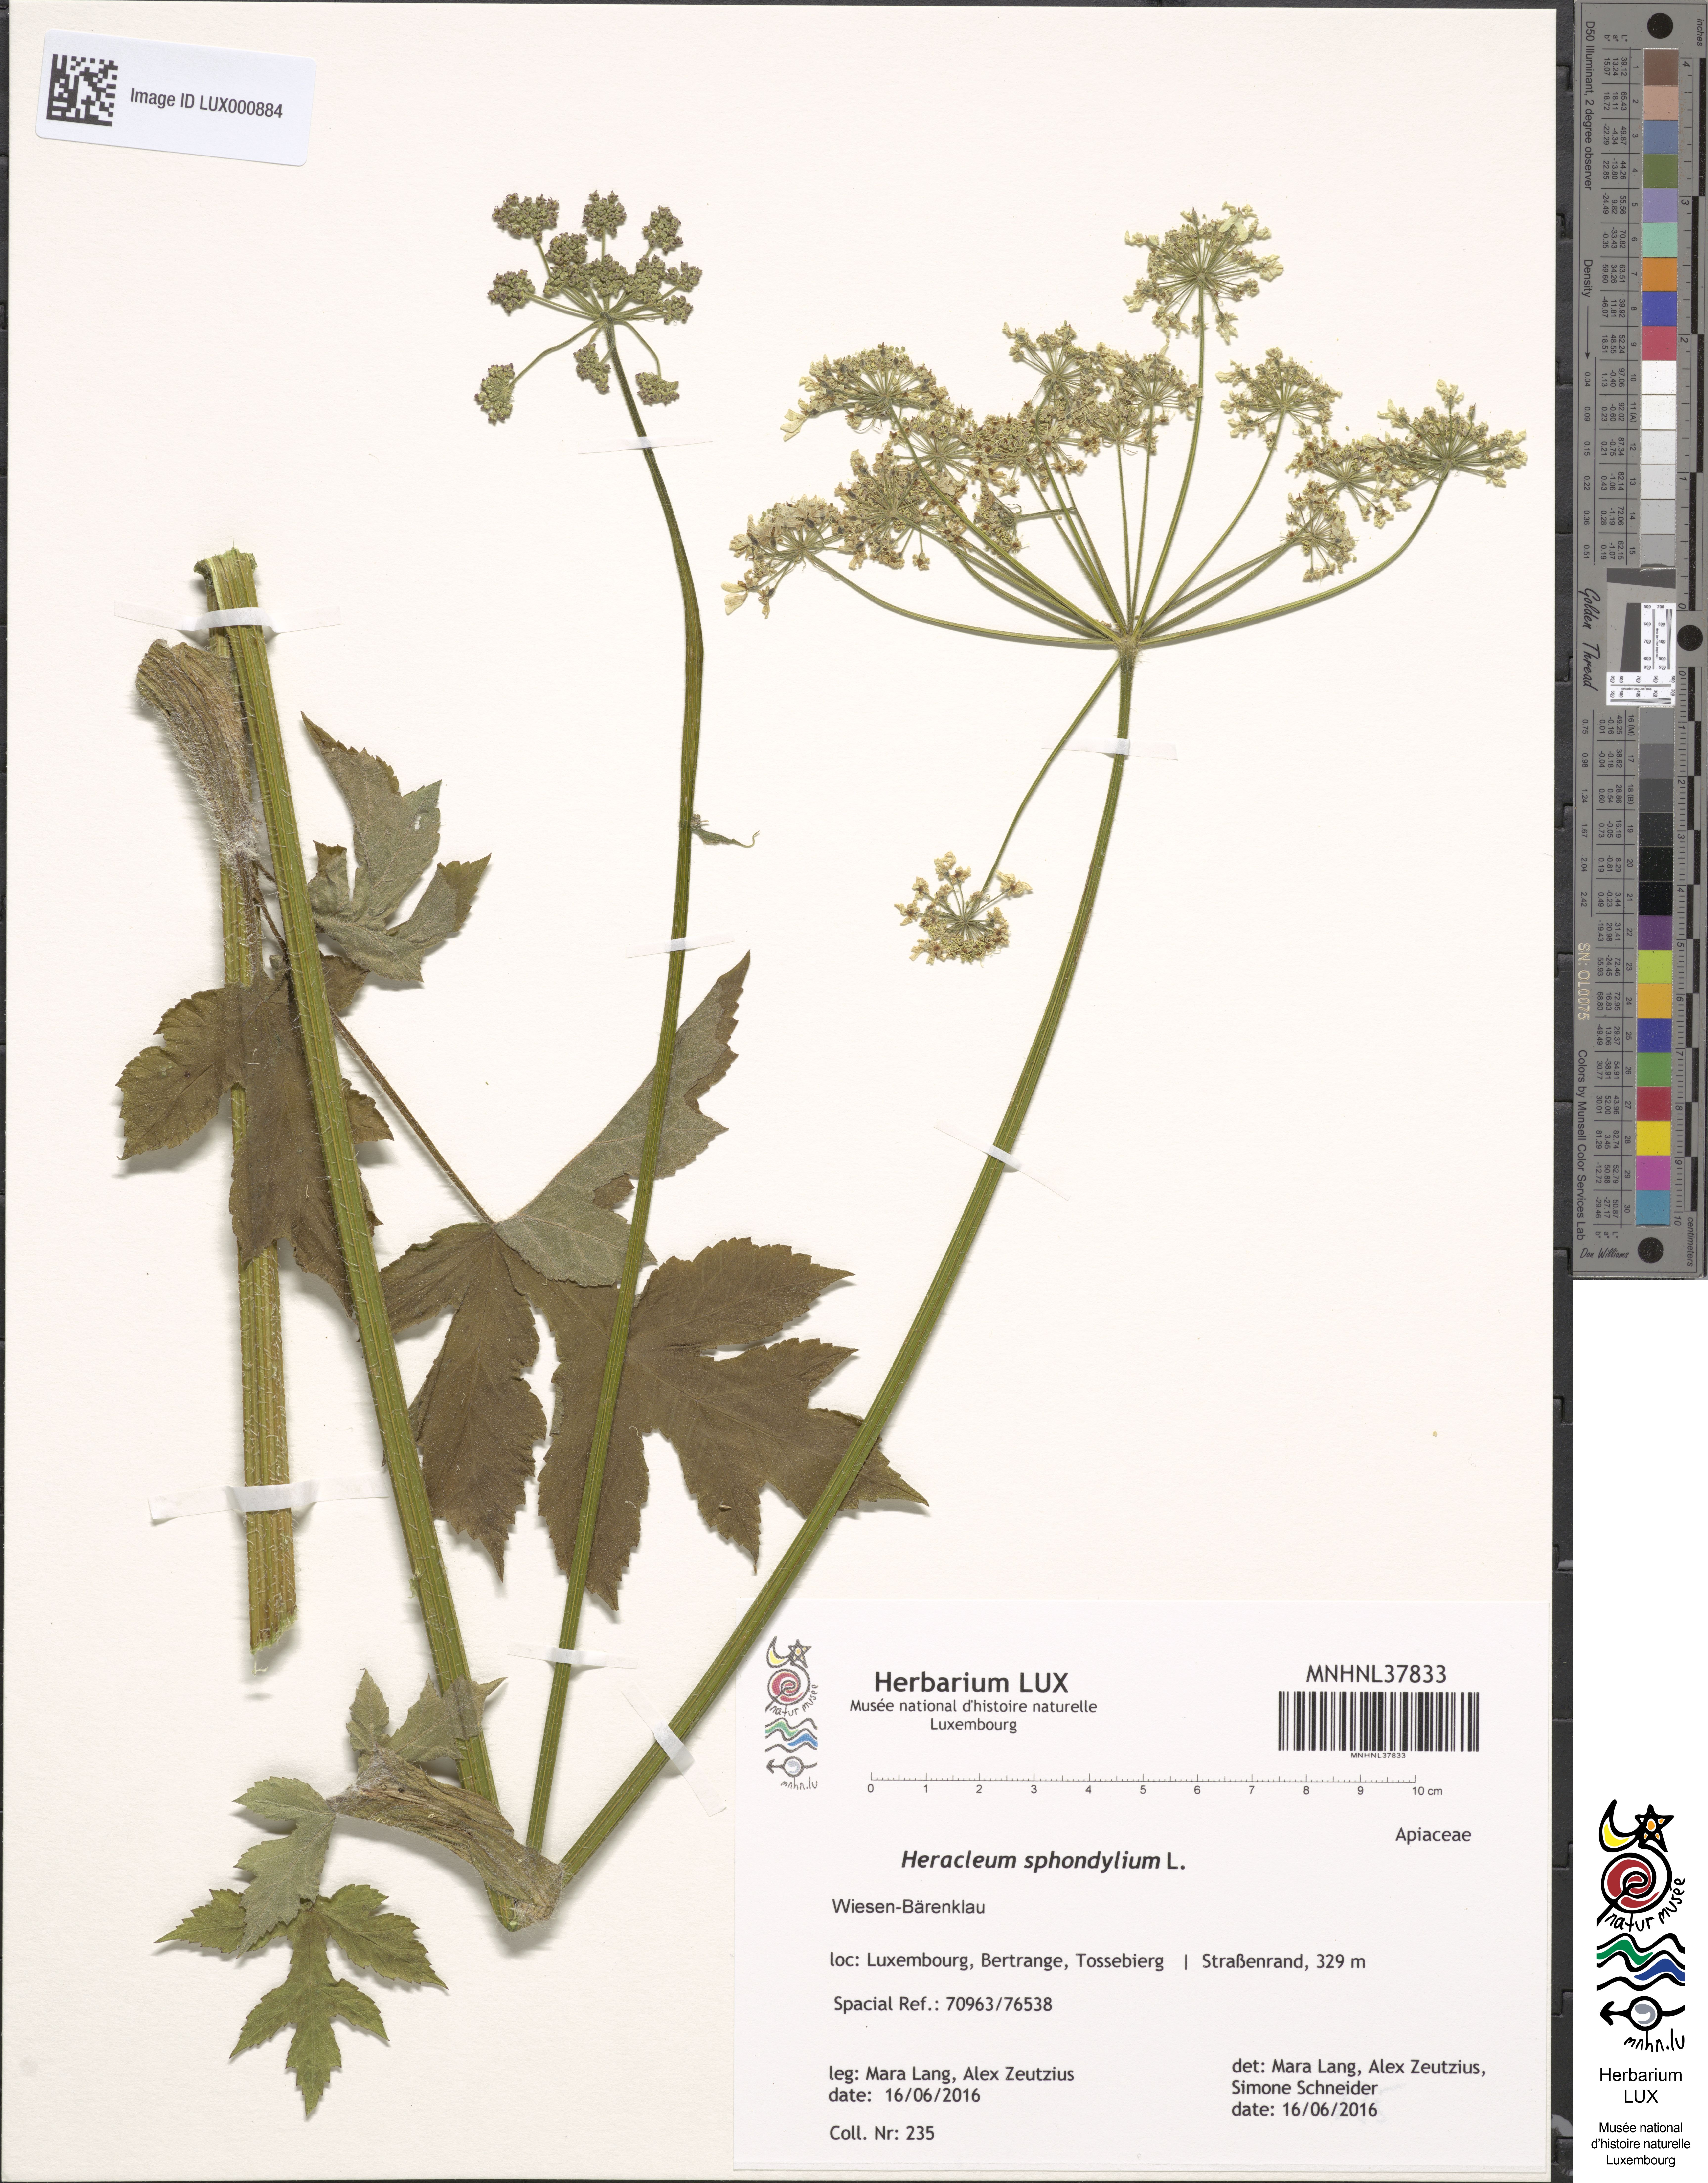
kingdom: Plantae
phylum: Tracheophyta
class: Magnoliopsida
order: Apiales
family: Apiaceae
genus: Heracleum
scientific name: Heracleum sphondylium
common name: Hogweed
